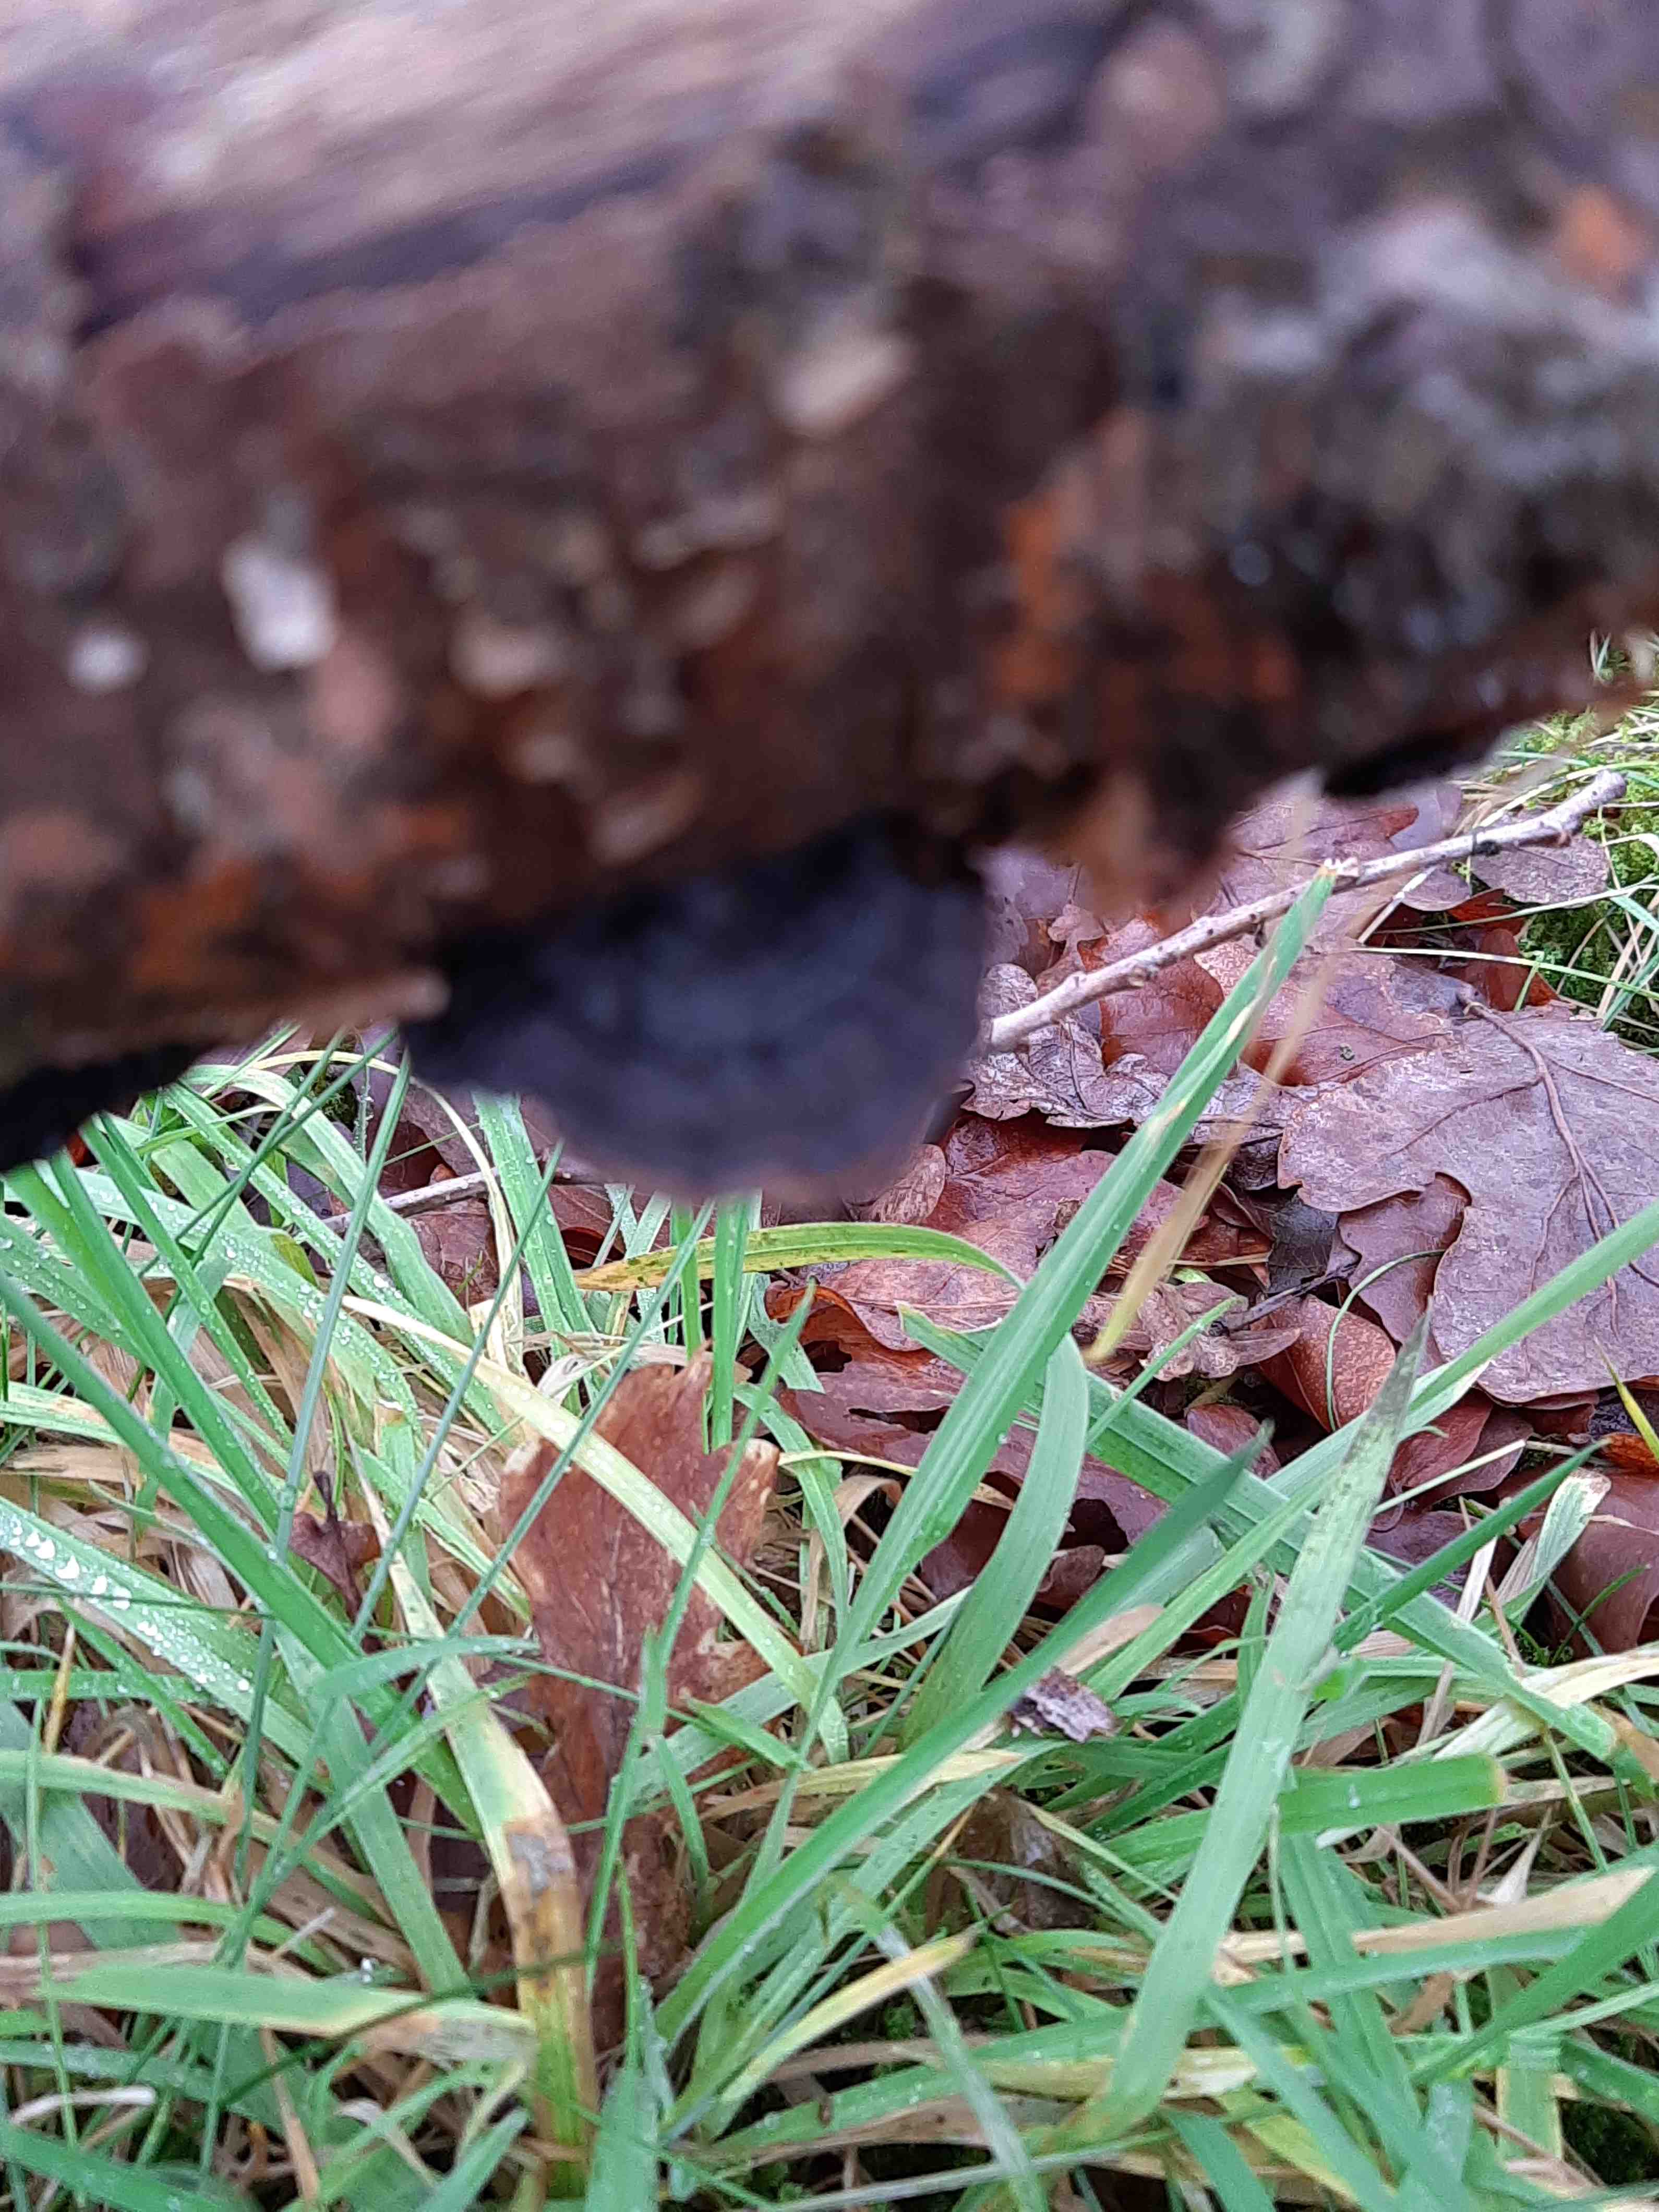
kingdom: Fungi
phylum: Basidiomycota
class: Agaricomycetes
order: Polyporales
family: Polyporaceae
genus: Podofomes
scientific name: Podofomes mollis
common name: blød begporesvamp
